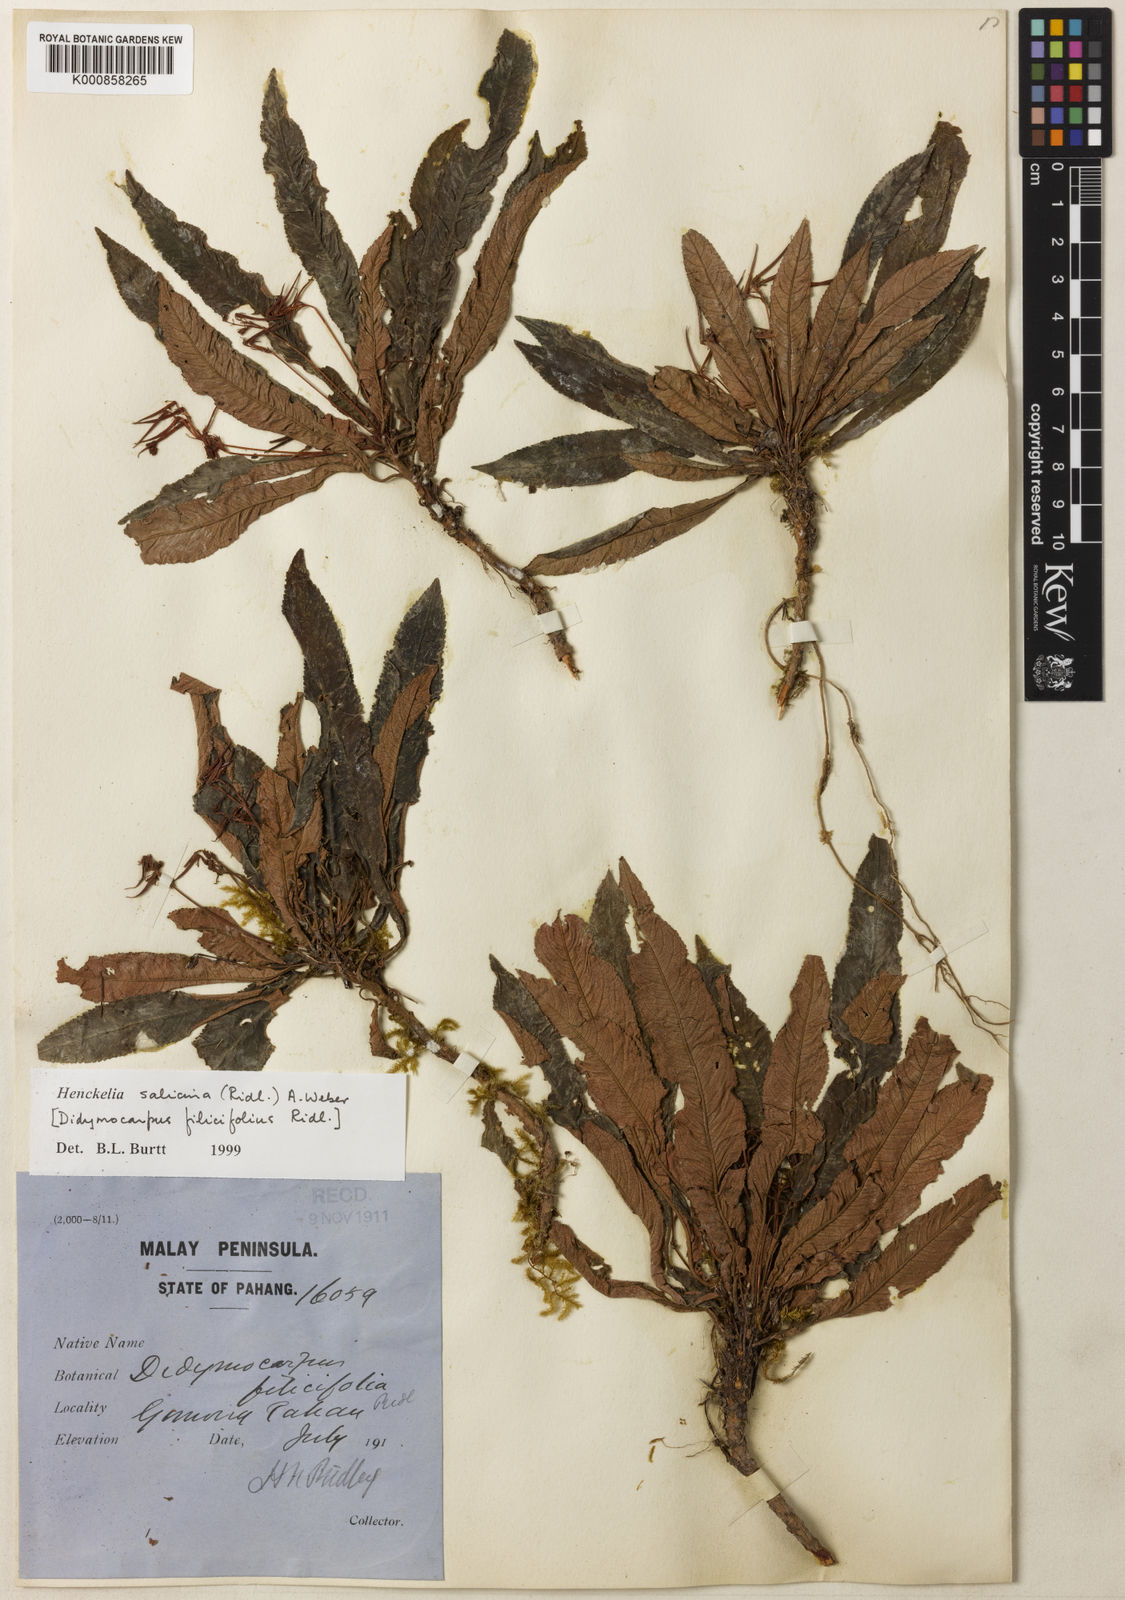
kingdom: Plantae
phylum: Tracheophyta
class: Magnoliopsida
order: Lamiales
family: Gesneriaceae
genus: Codonoboea
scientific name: Codonoboea salicina
